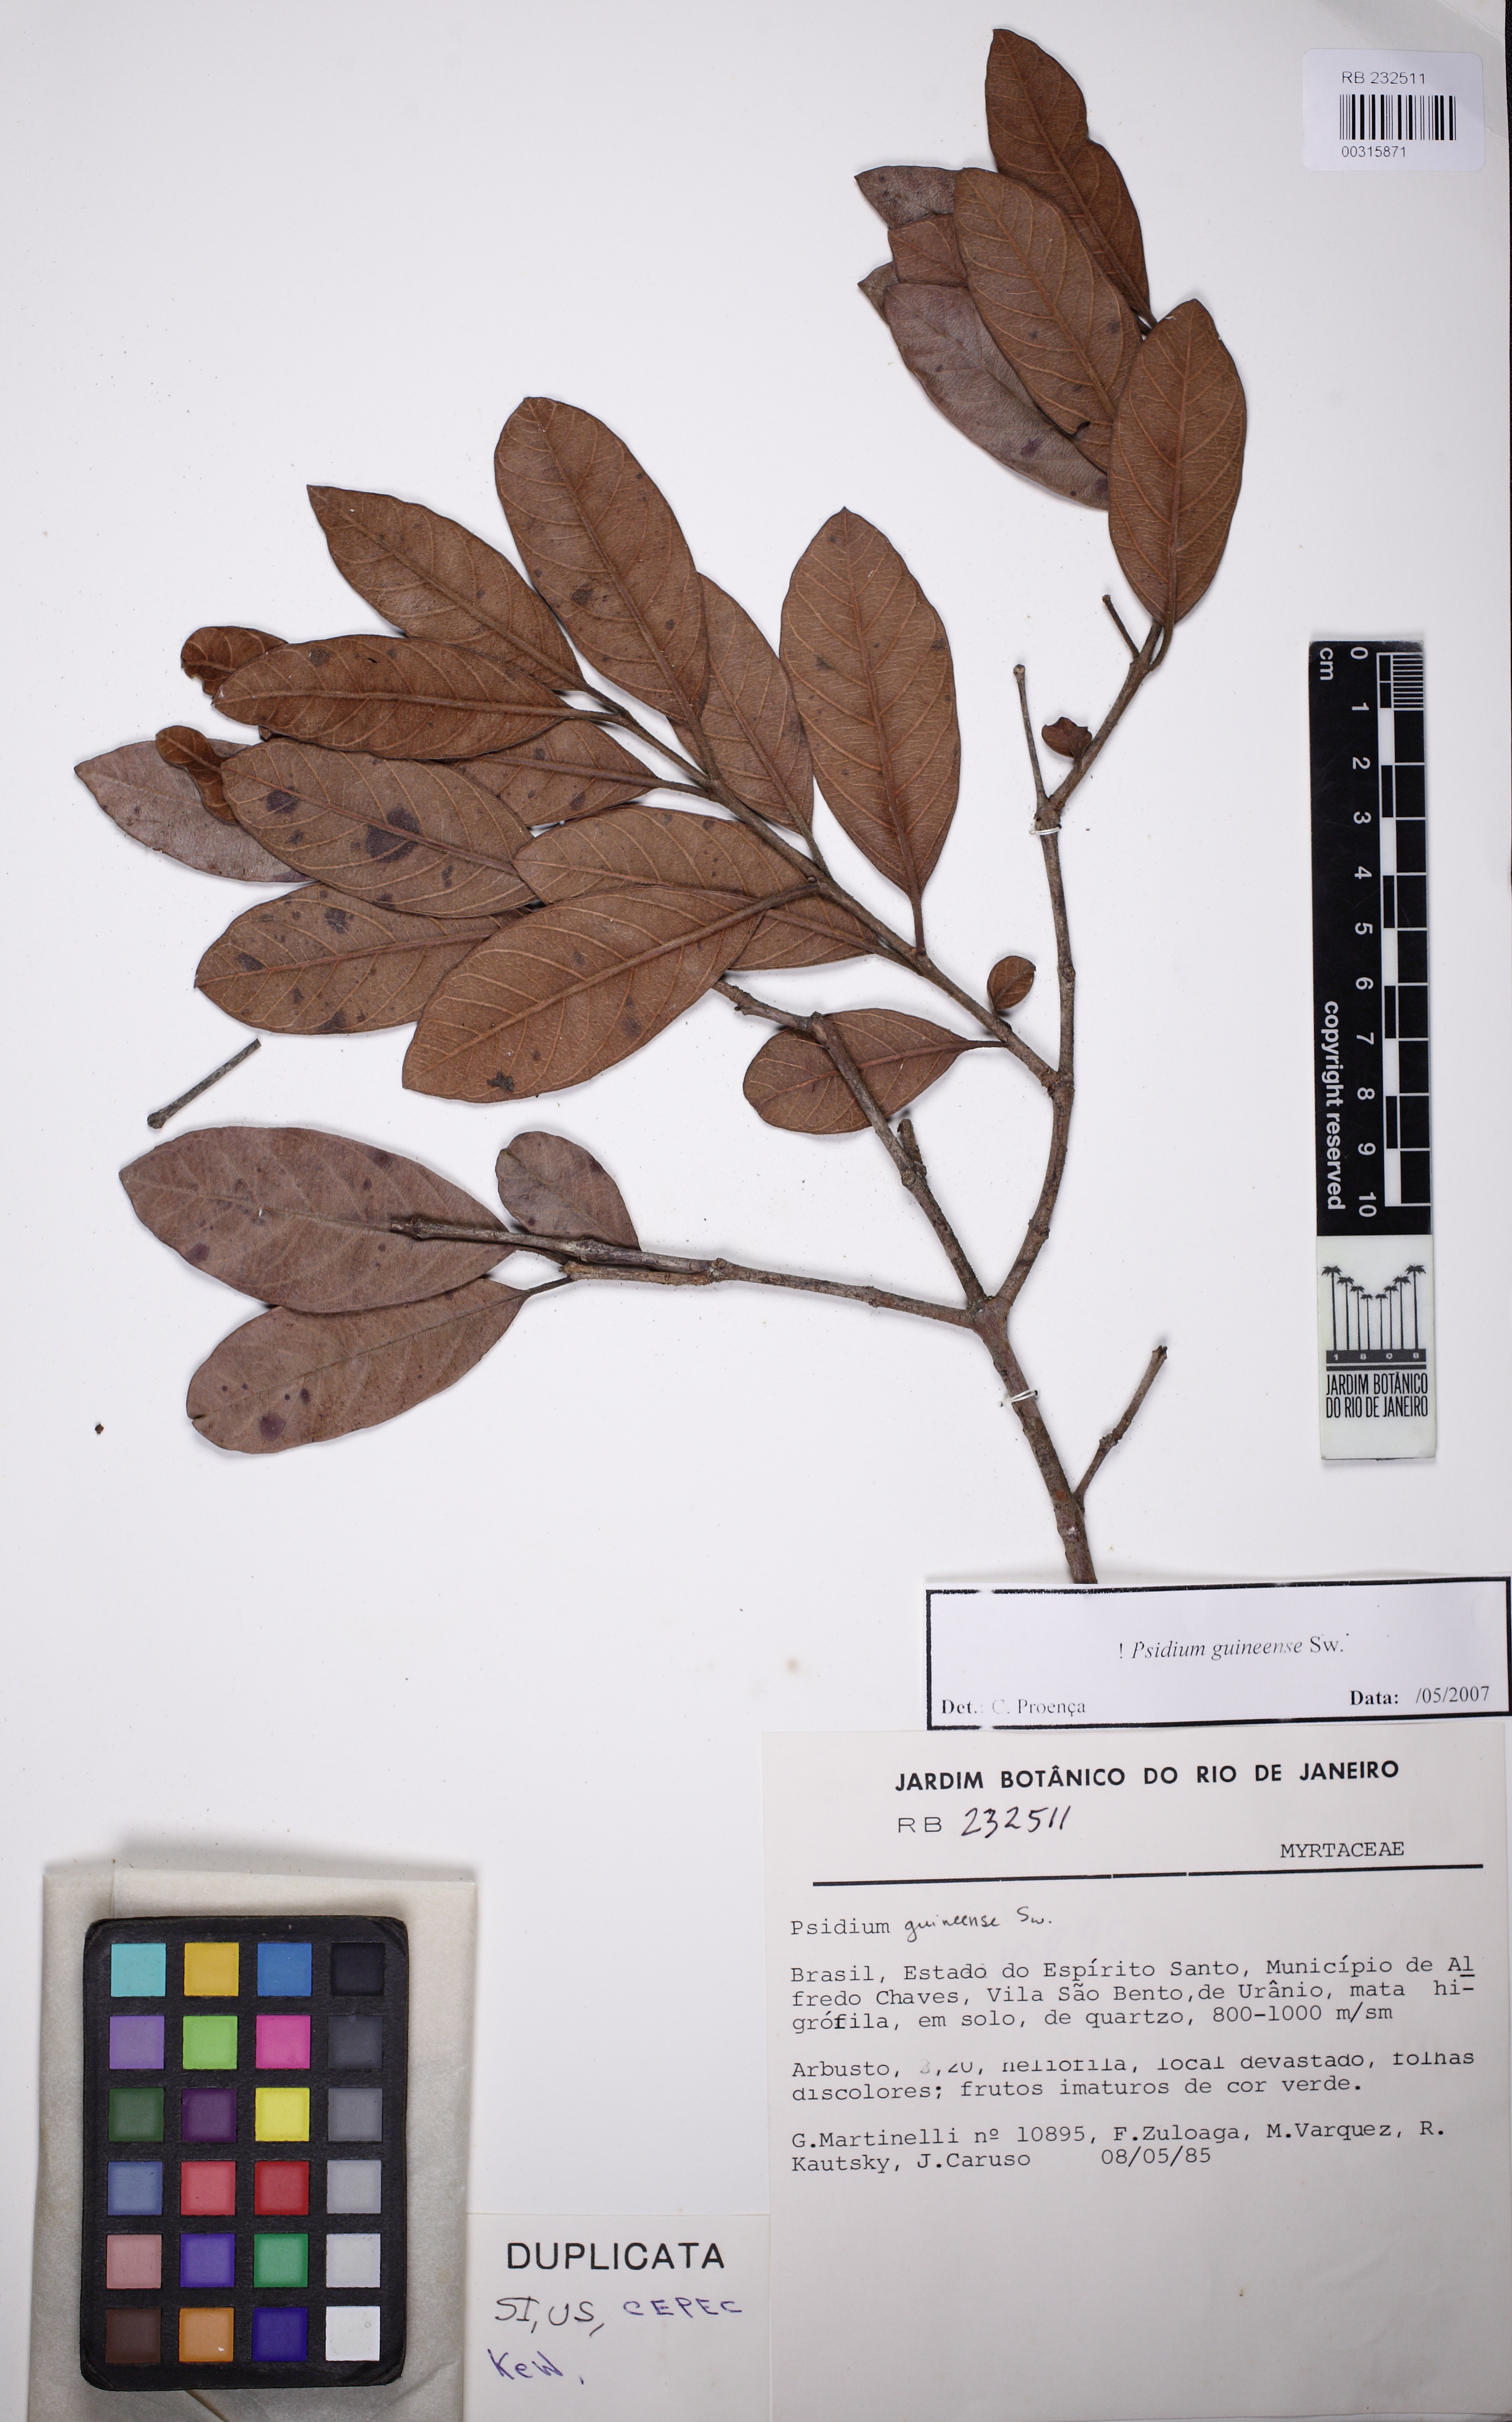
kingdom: Plantae
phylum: Tracheophyta
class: Magnoliopsida
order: Myrtales
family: Myrtaceae
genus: Psidium
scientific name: Psidium guineense
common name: Brazilian guava
